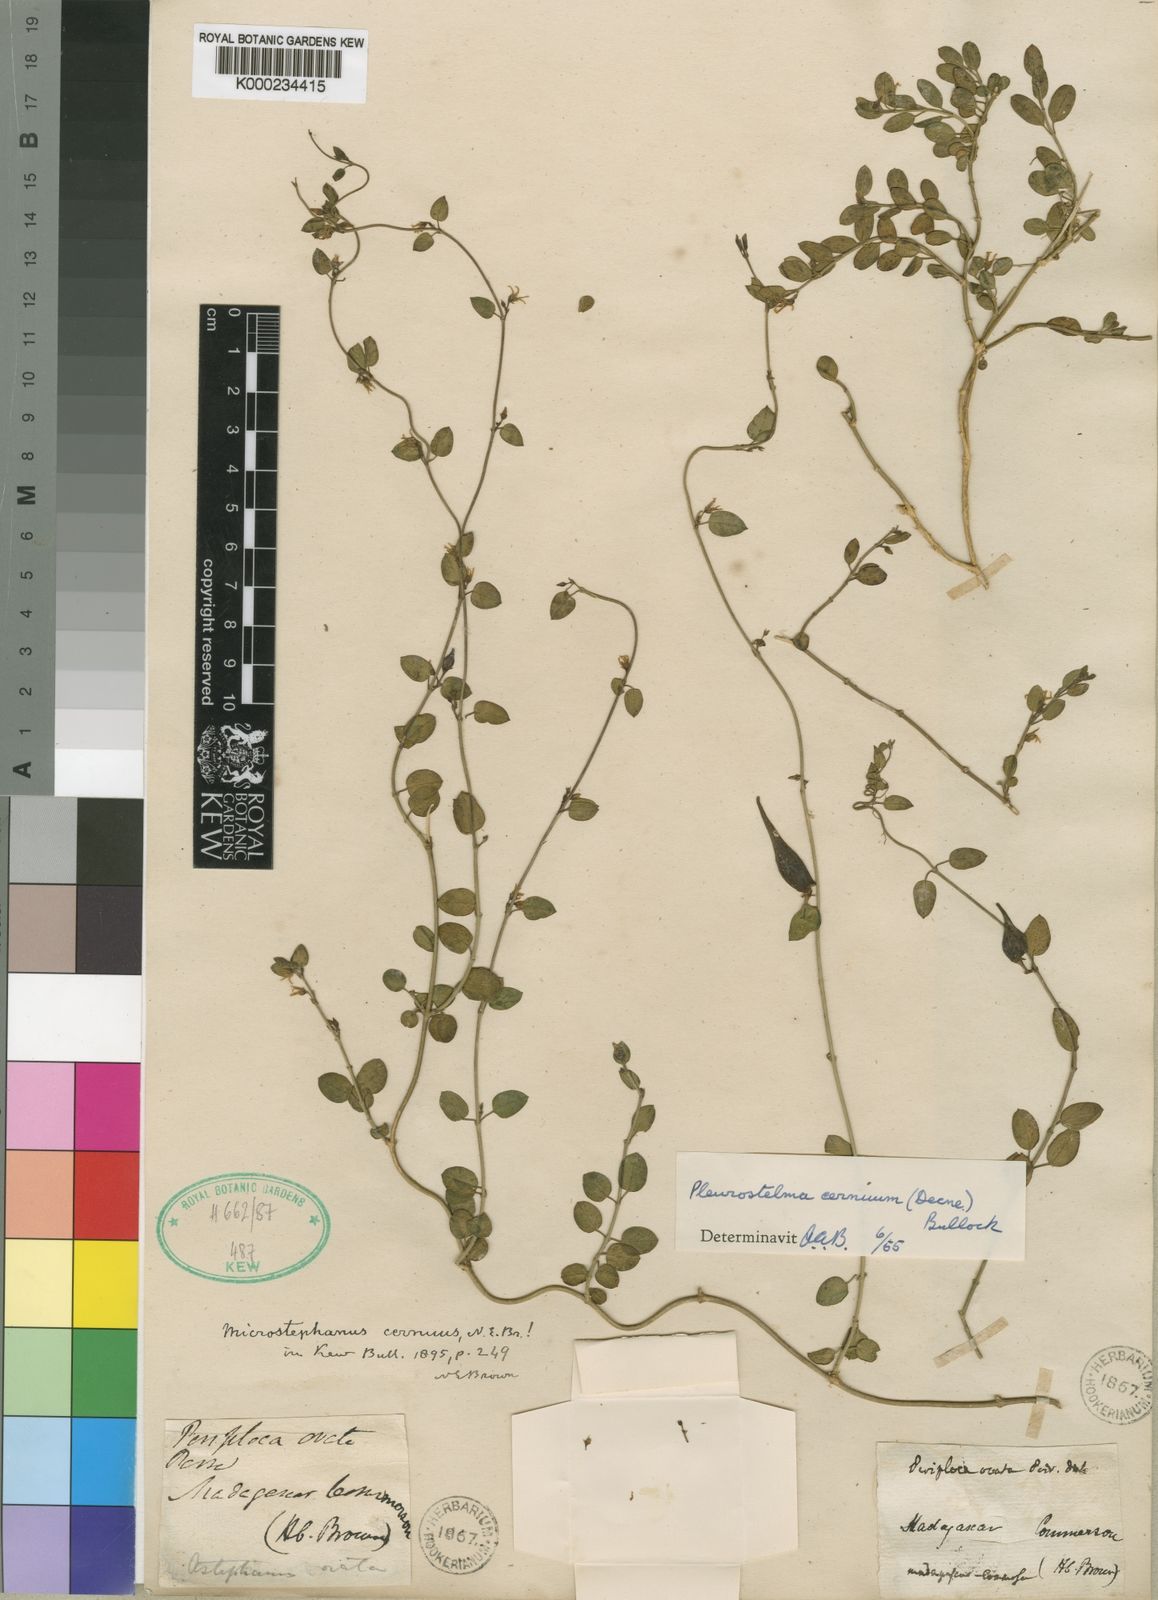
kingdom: Plantae
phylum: Tracheophyta
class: Magnoliopsida
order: Gentianales
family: Apocynaceae
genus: Vincetoxicum
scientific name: Vincetoxicum cernuum
